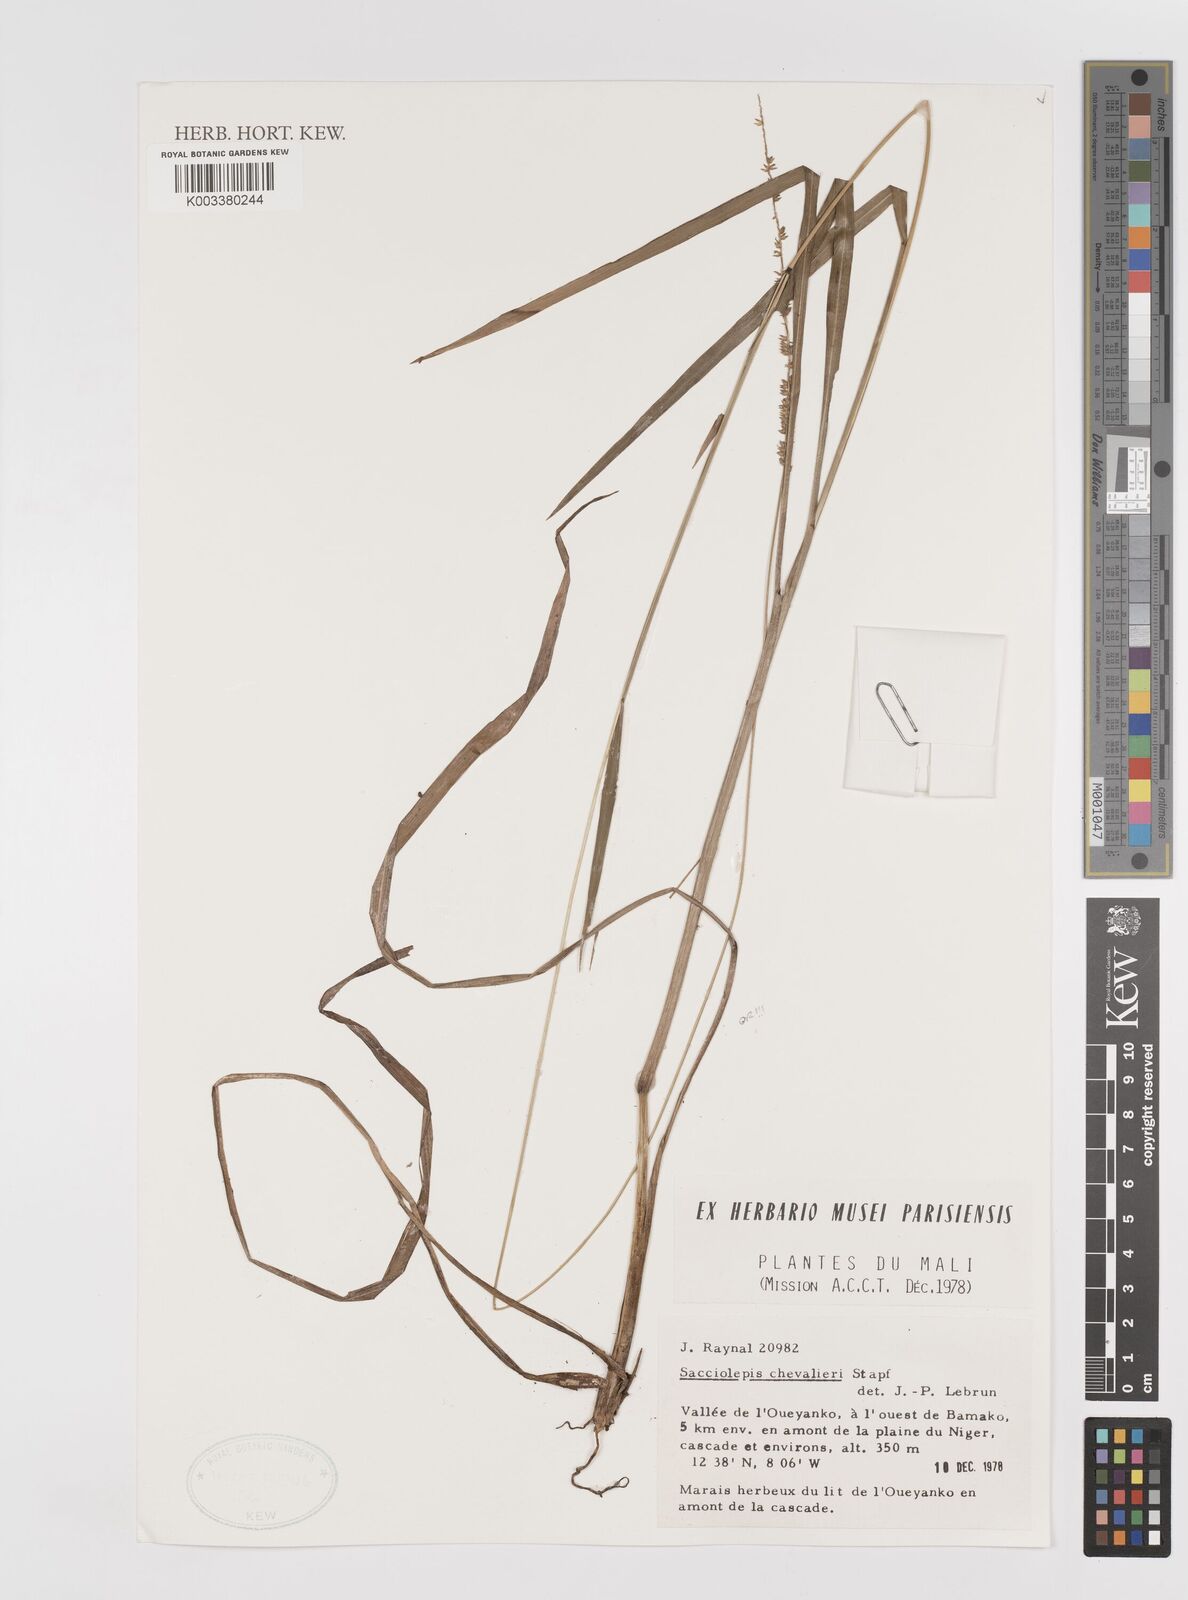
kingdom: Plantae
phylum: Tracheophyta
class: Liliopsida
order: Poales
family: Poaceae
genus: Sacciolepis
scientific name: Sacciolepis chevalieri
